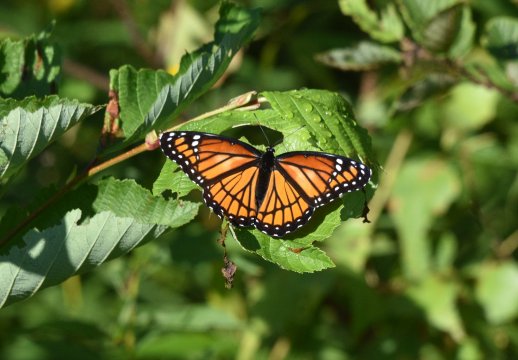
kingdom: Animalia
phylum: Arthropoda
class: Insecta
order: Lepidoptera
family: Nymphalidae
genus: Limenitis
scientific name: Limenitis archippus
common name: Viceroy
